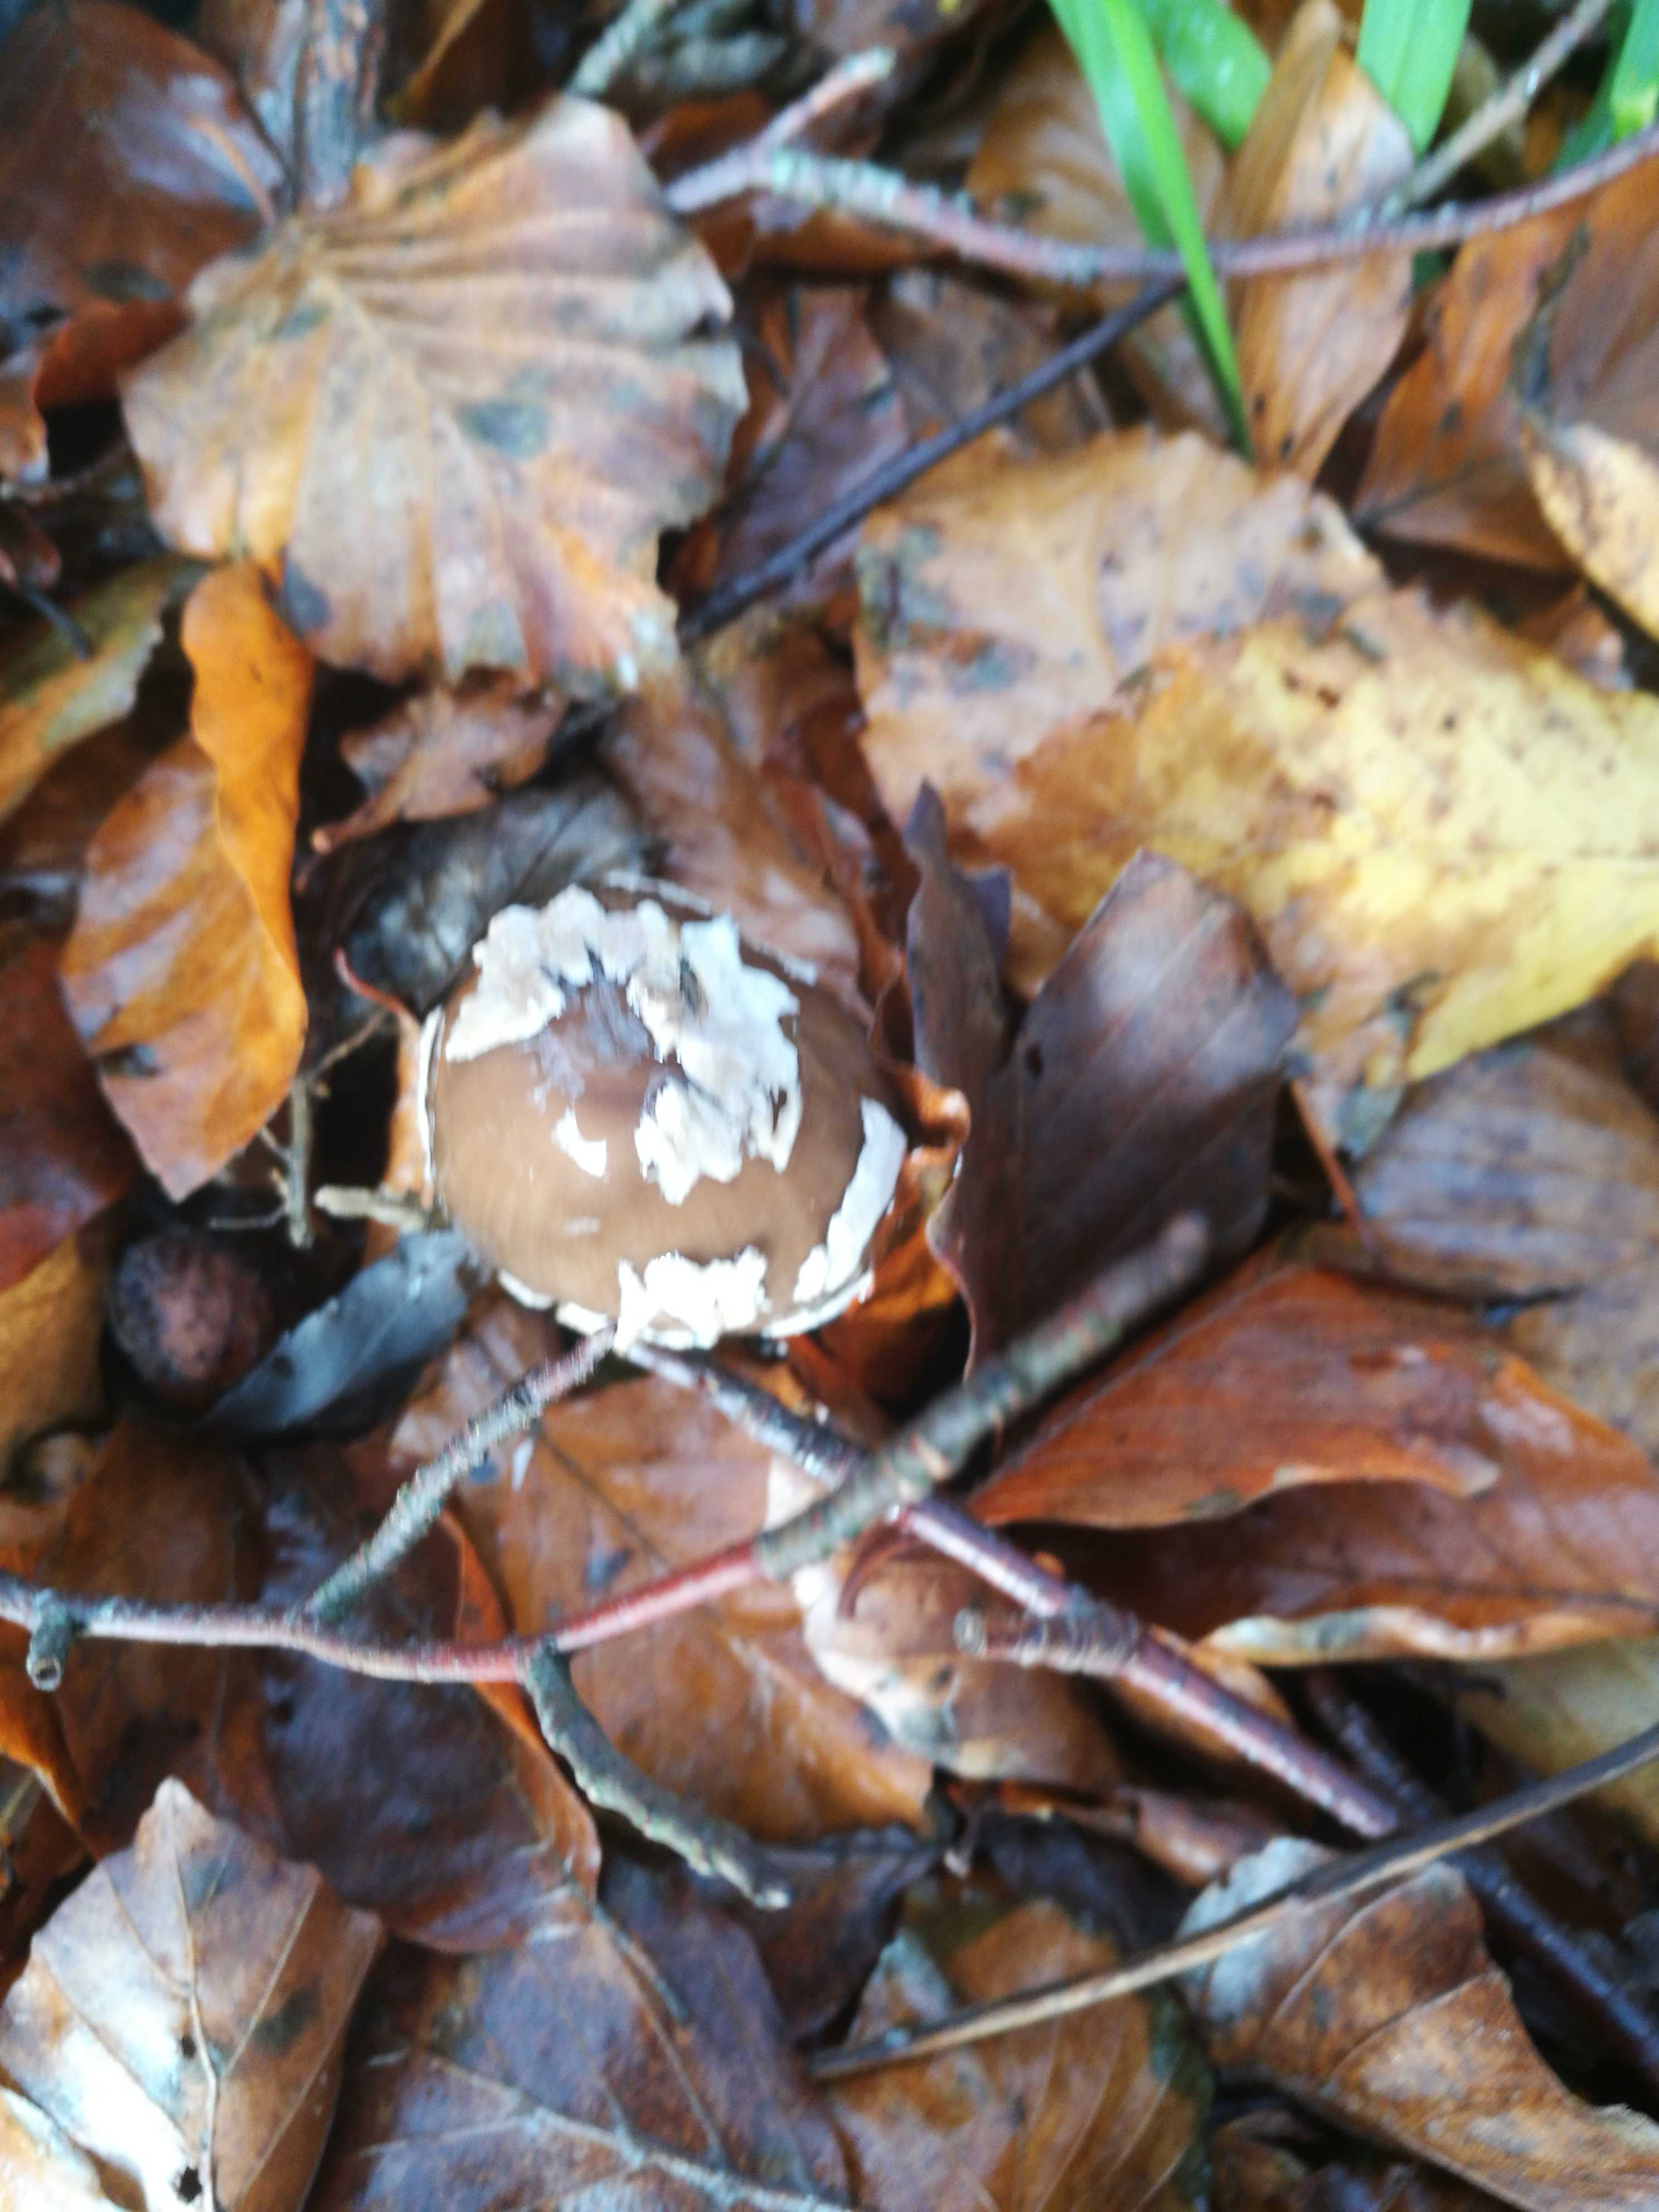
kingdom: Fungi
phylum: Basidiomycota
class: Agaricomycetes
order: Agaricales
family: Psathyrellaceae
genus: Coprinopsis
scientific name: Coprinopsis picacea
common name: skade-blækhat
